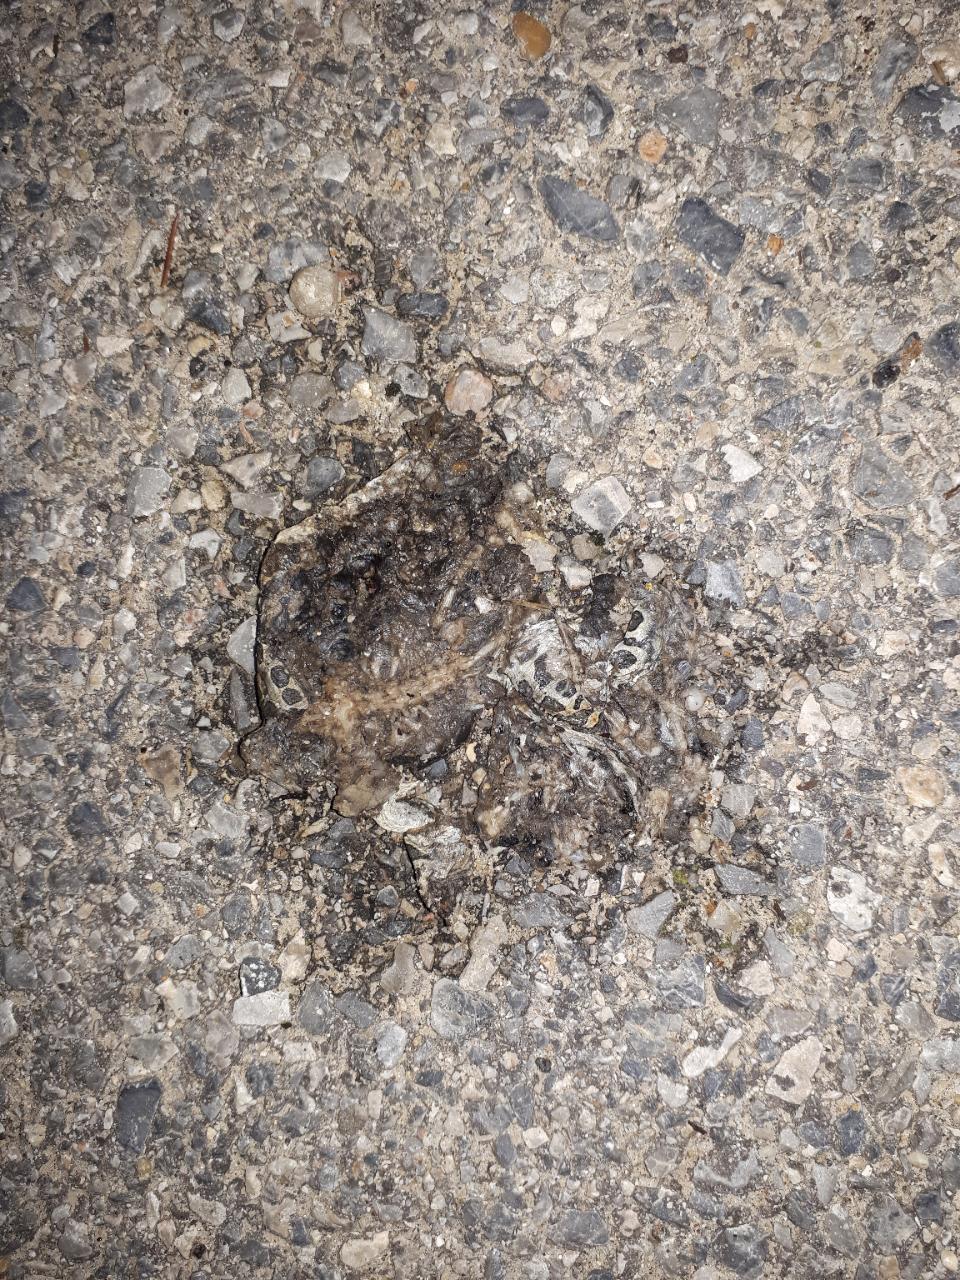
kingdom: Animalia
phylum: Chordata
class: Amphibia
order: Anura
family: Bufonidae
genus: Bufotes
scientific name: Bufotes viridis
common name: European green toad
